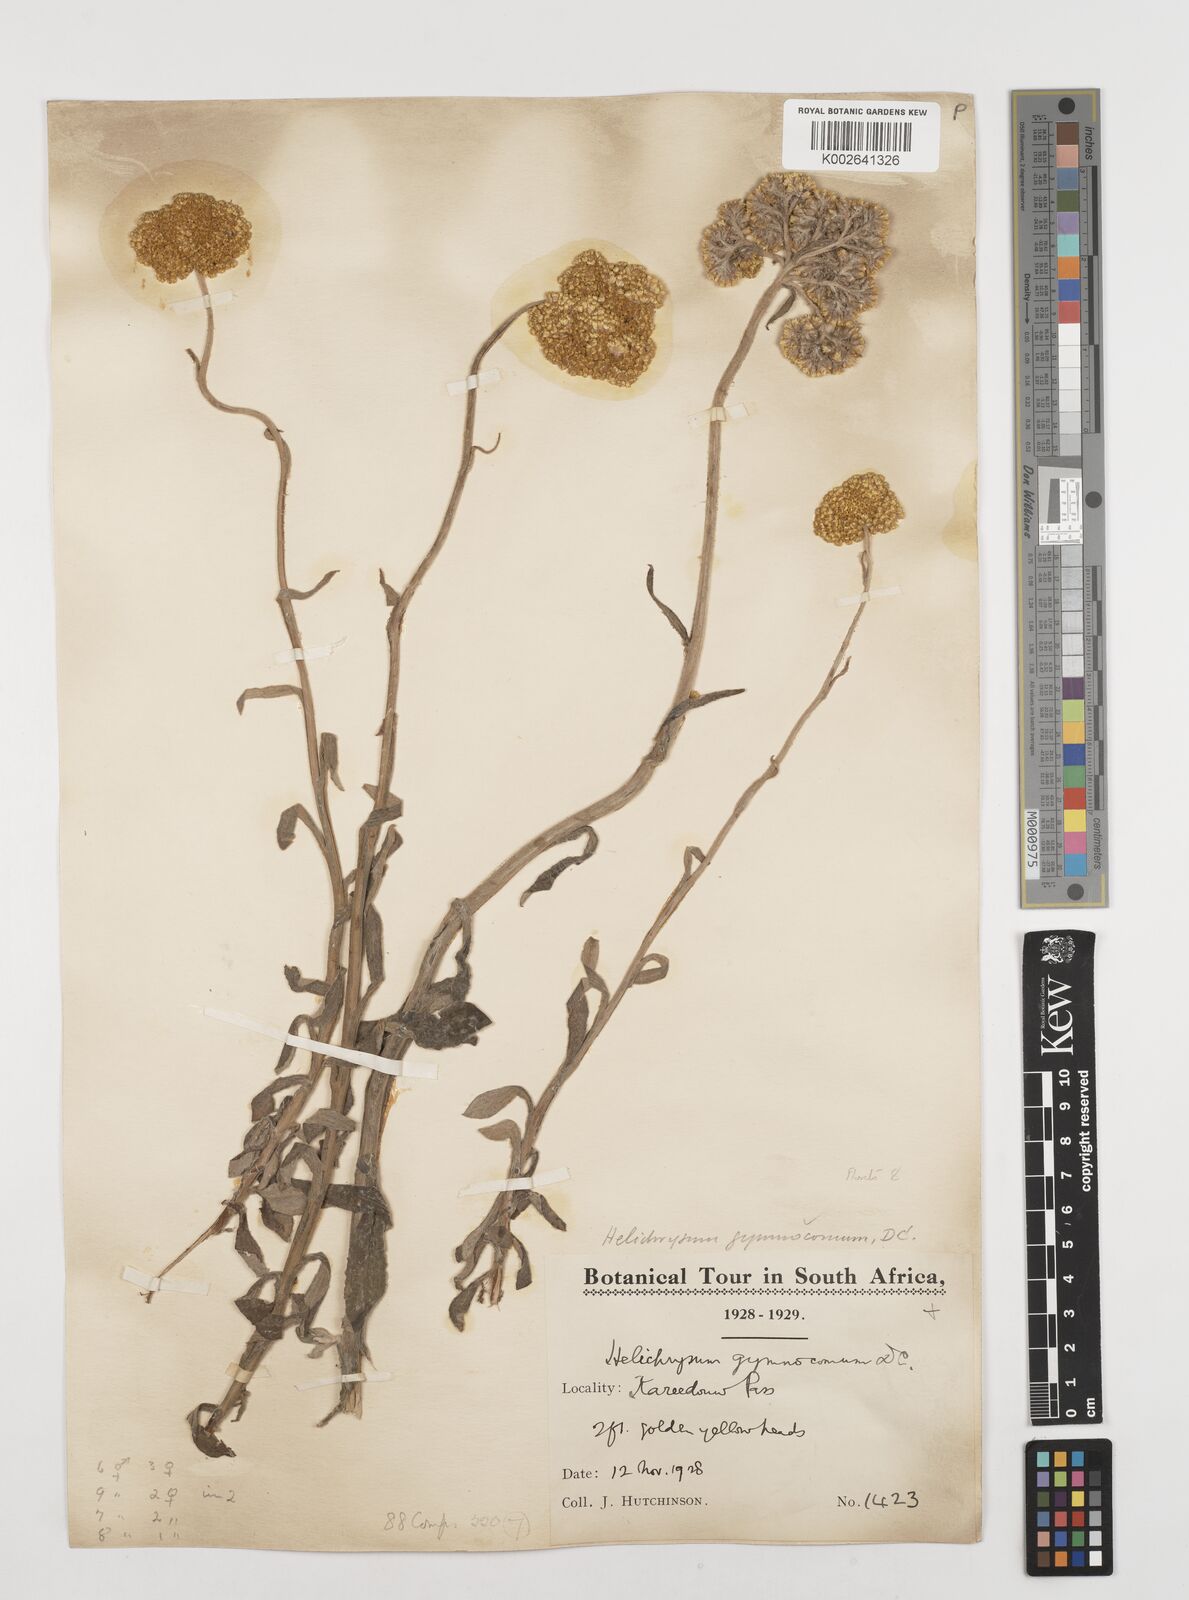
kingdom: Plantae
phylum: Tracheophyta
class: Magnoliopsida
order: Asterales
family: Asteraceae
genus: Helichrysum
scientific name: Helichrysum odoratissimum
